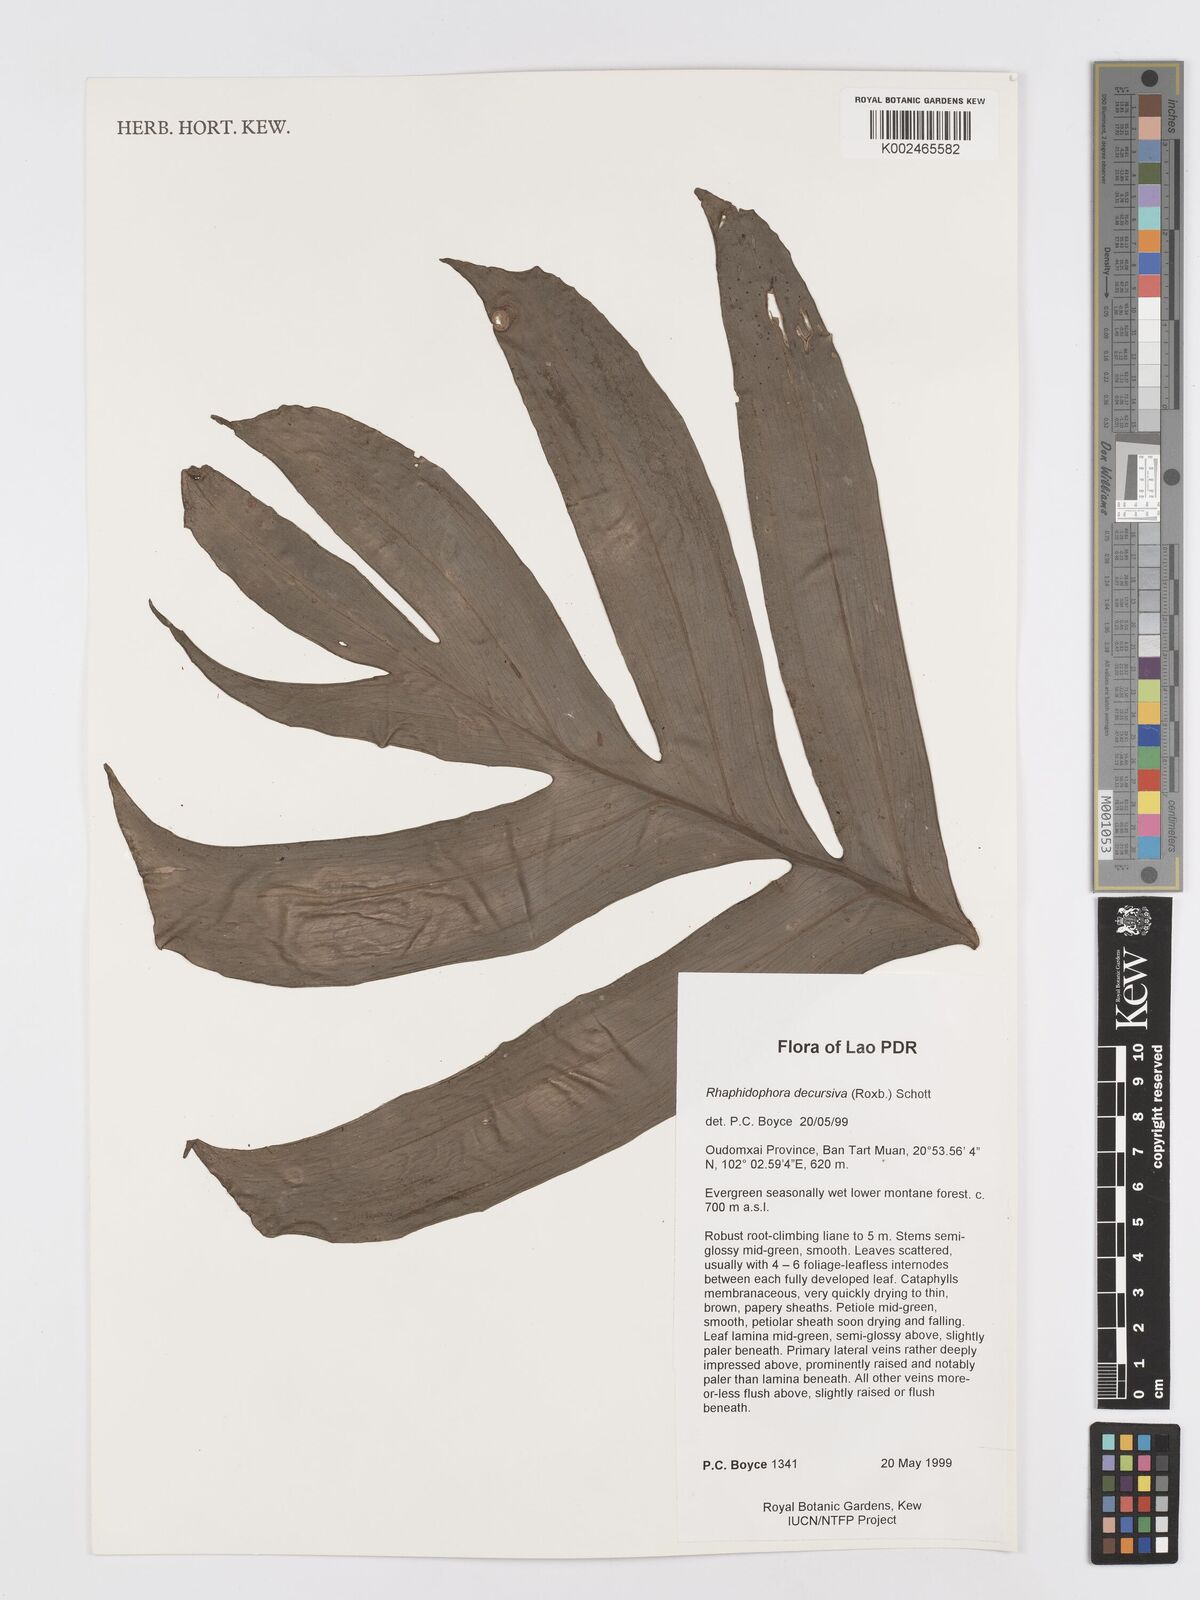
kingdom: Plantae
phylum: Tracheophyta
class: Liliopsida
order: Alismatales
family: Araceae
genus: Rhaphidophora
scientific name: Rhaphidophora decursiva
